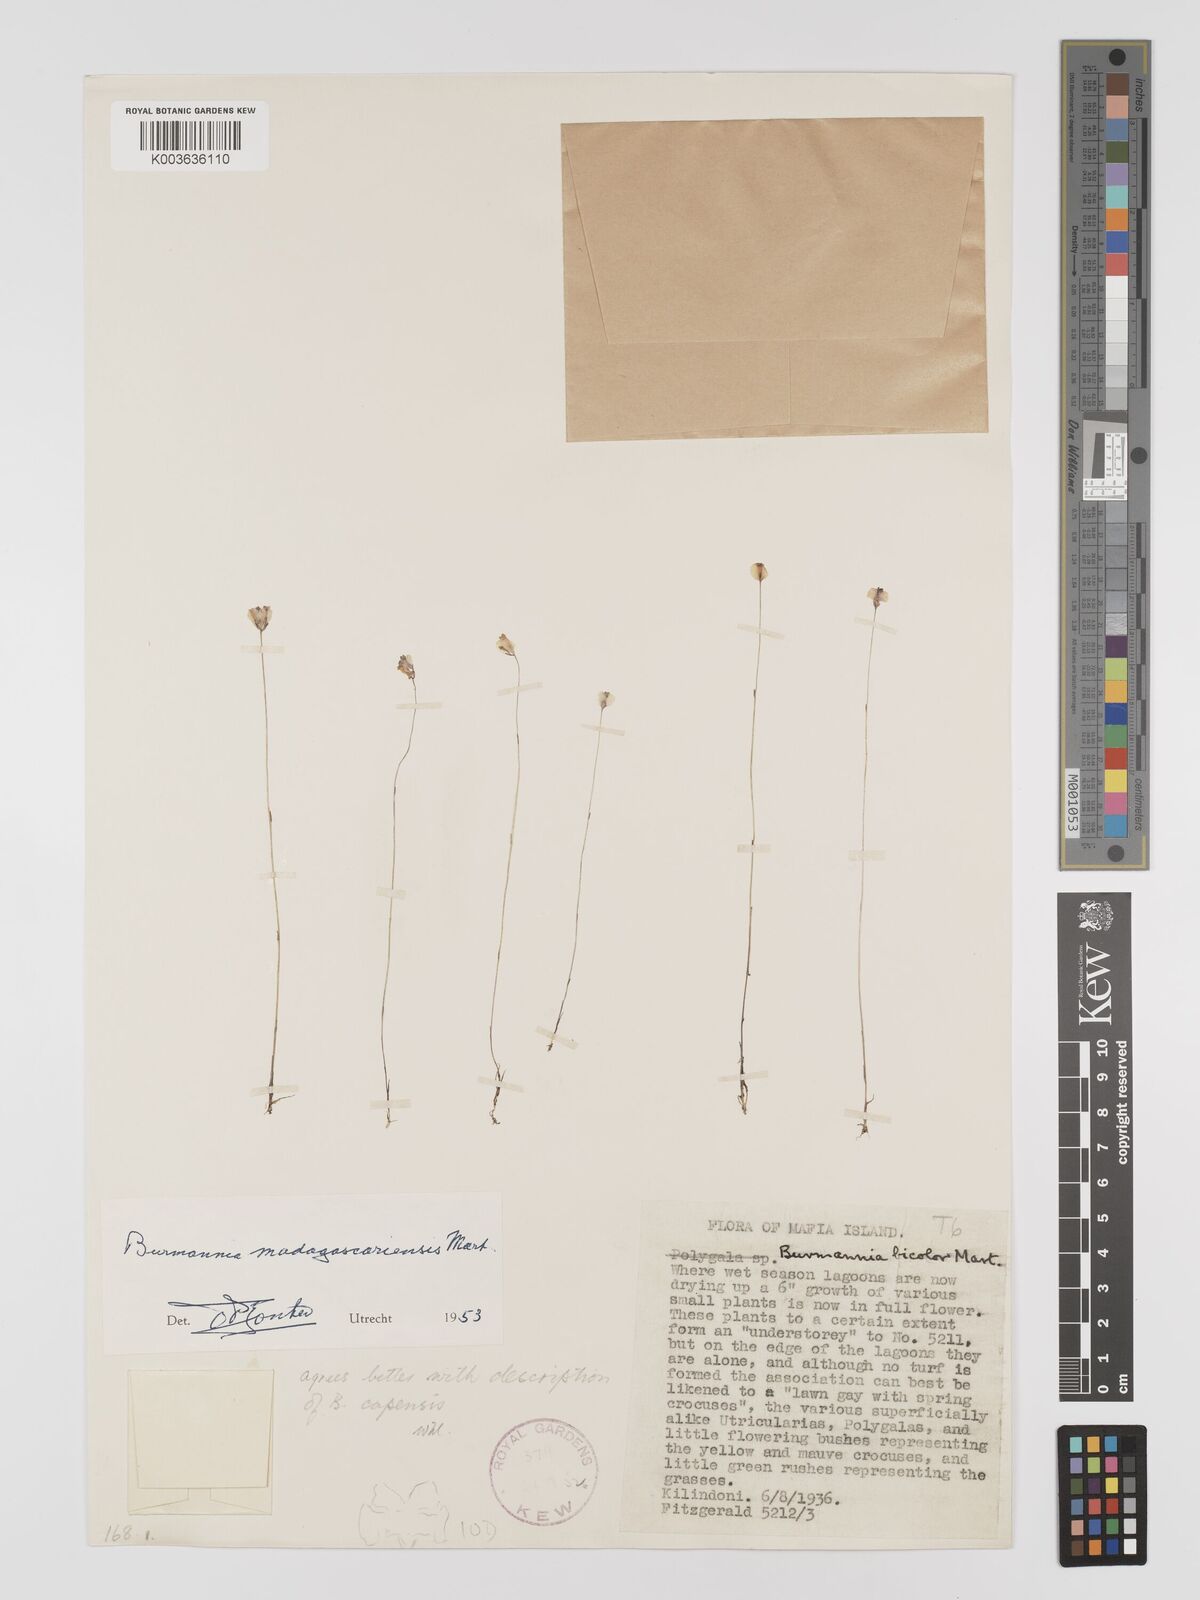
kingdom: Plantae
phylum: Tracheophyta
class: Liliopsida
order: Dioscoreales
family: Burmanniaceae
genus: Burmannia
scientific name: Burmannia madagascariensis
